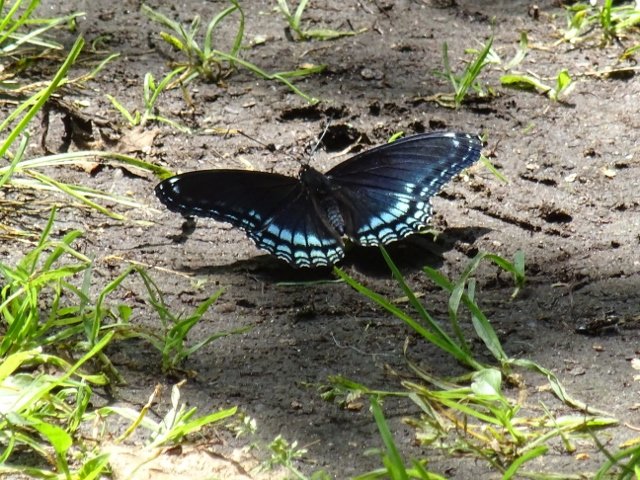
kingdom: Animalia
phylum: Arthropoda
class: Insecta
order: Lepidoptera
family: Nymphalidae
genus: Limenitis
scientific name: Limenitis astyanax
